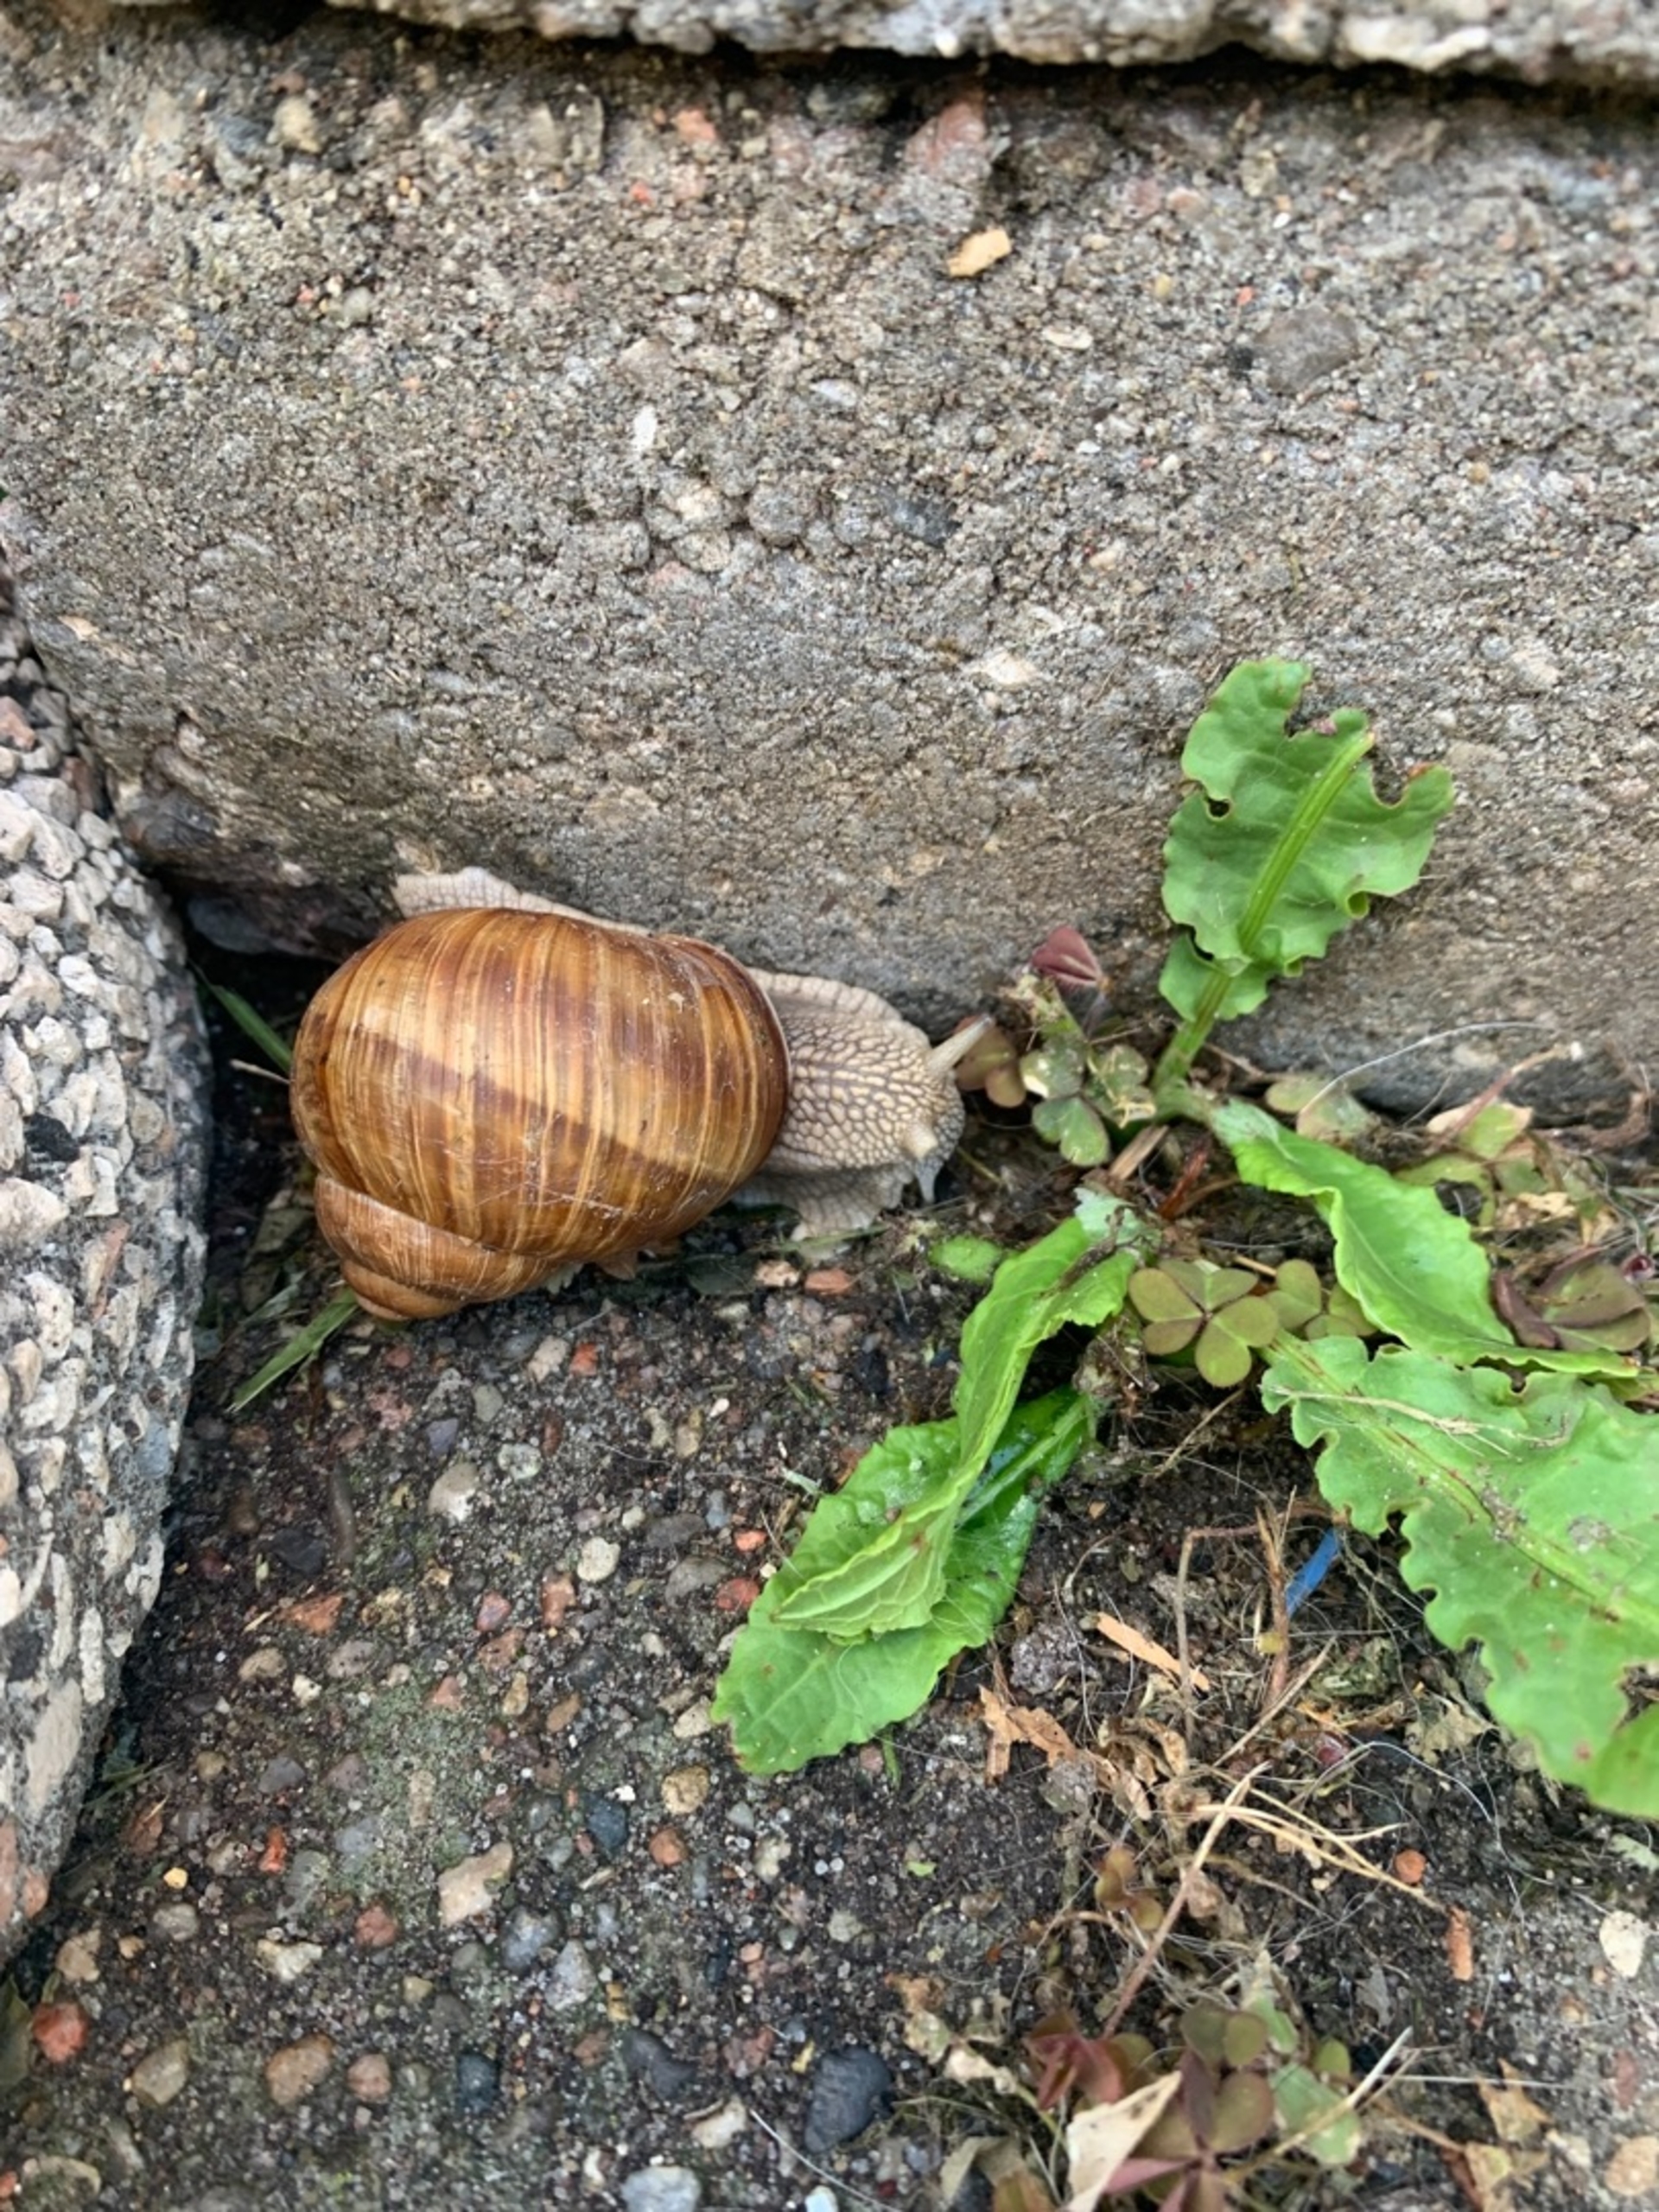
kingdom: Animalia
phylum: Mollusca
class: Gastropoda
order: Stylommatophora
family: Helicidae
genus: Helix
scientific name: Helix pomatia
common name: Vinbjergsnegl
